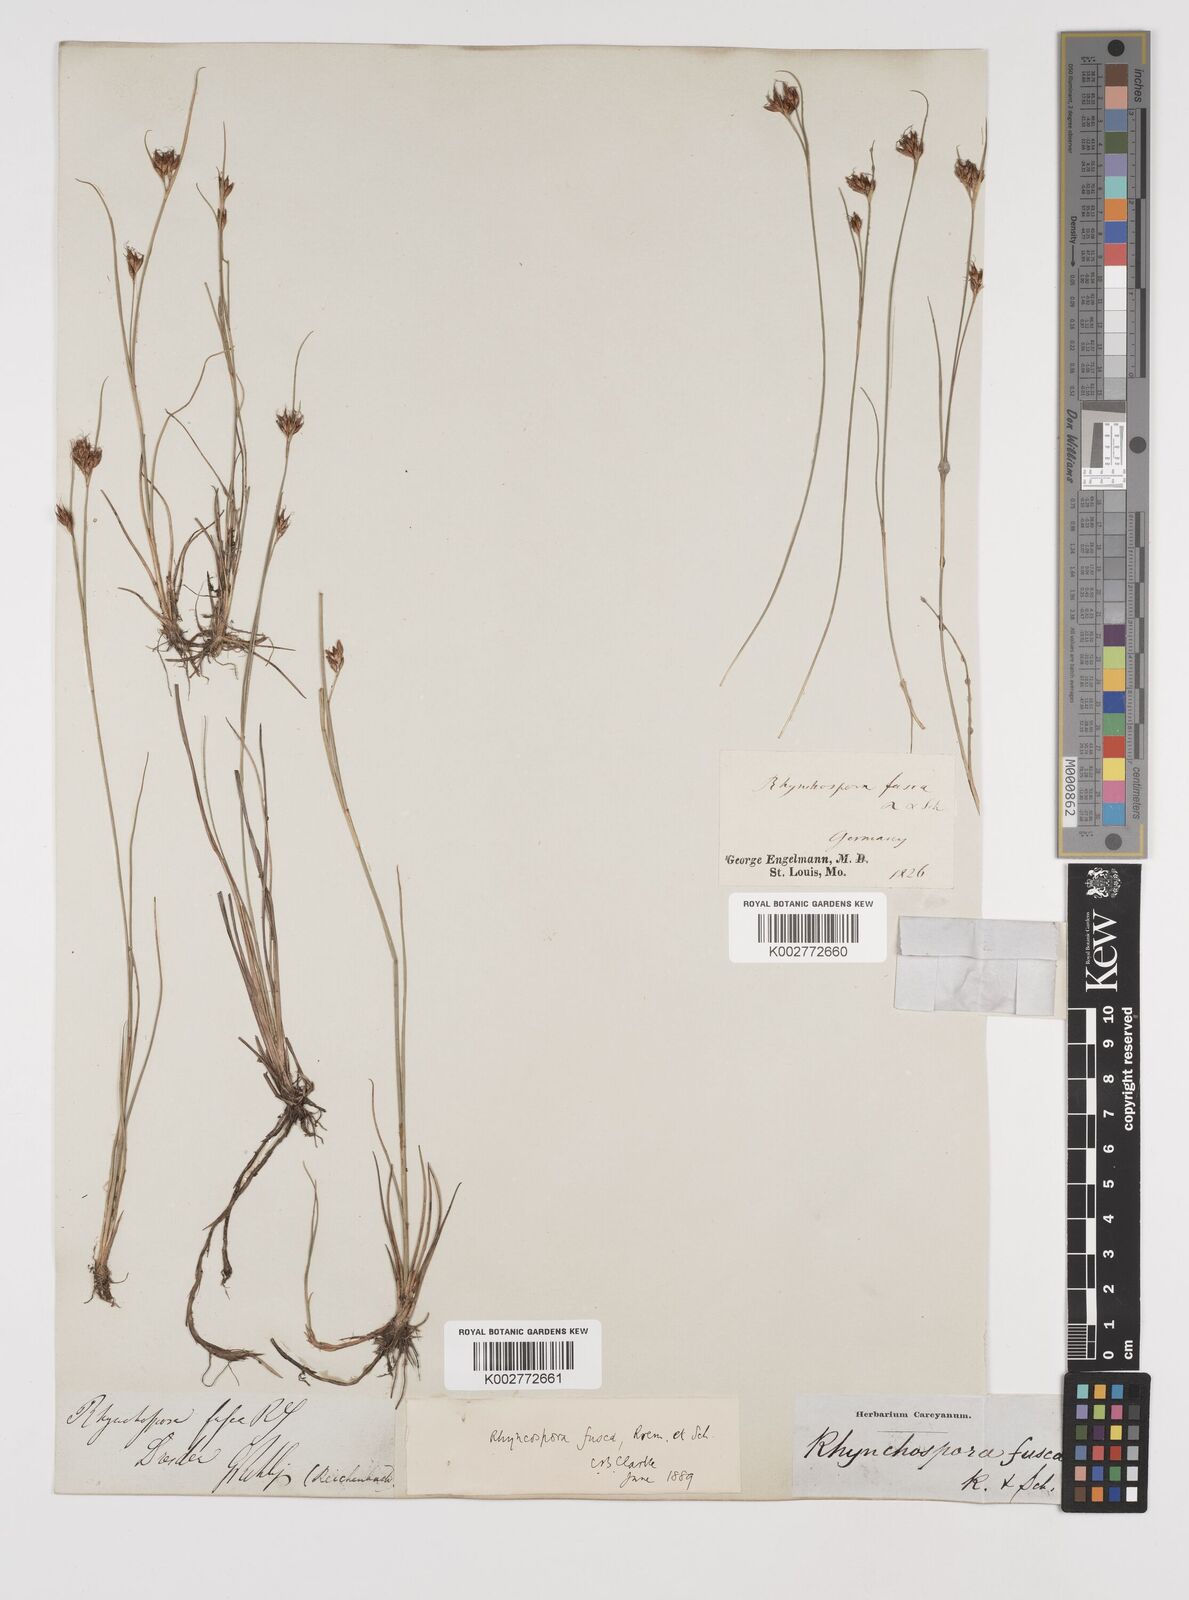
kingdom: Plantae
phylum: Tracheophyta
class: Liliopsida
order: Poales
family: Cyperaceae
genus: Rhynchospora
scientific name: Rhynchospora fusca
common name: Brown beak-sedge
